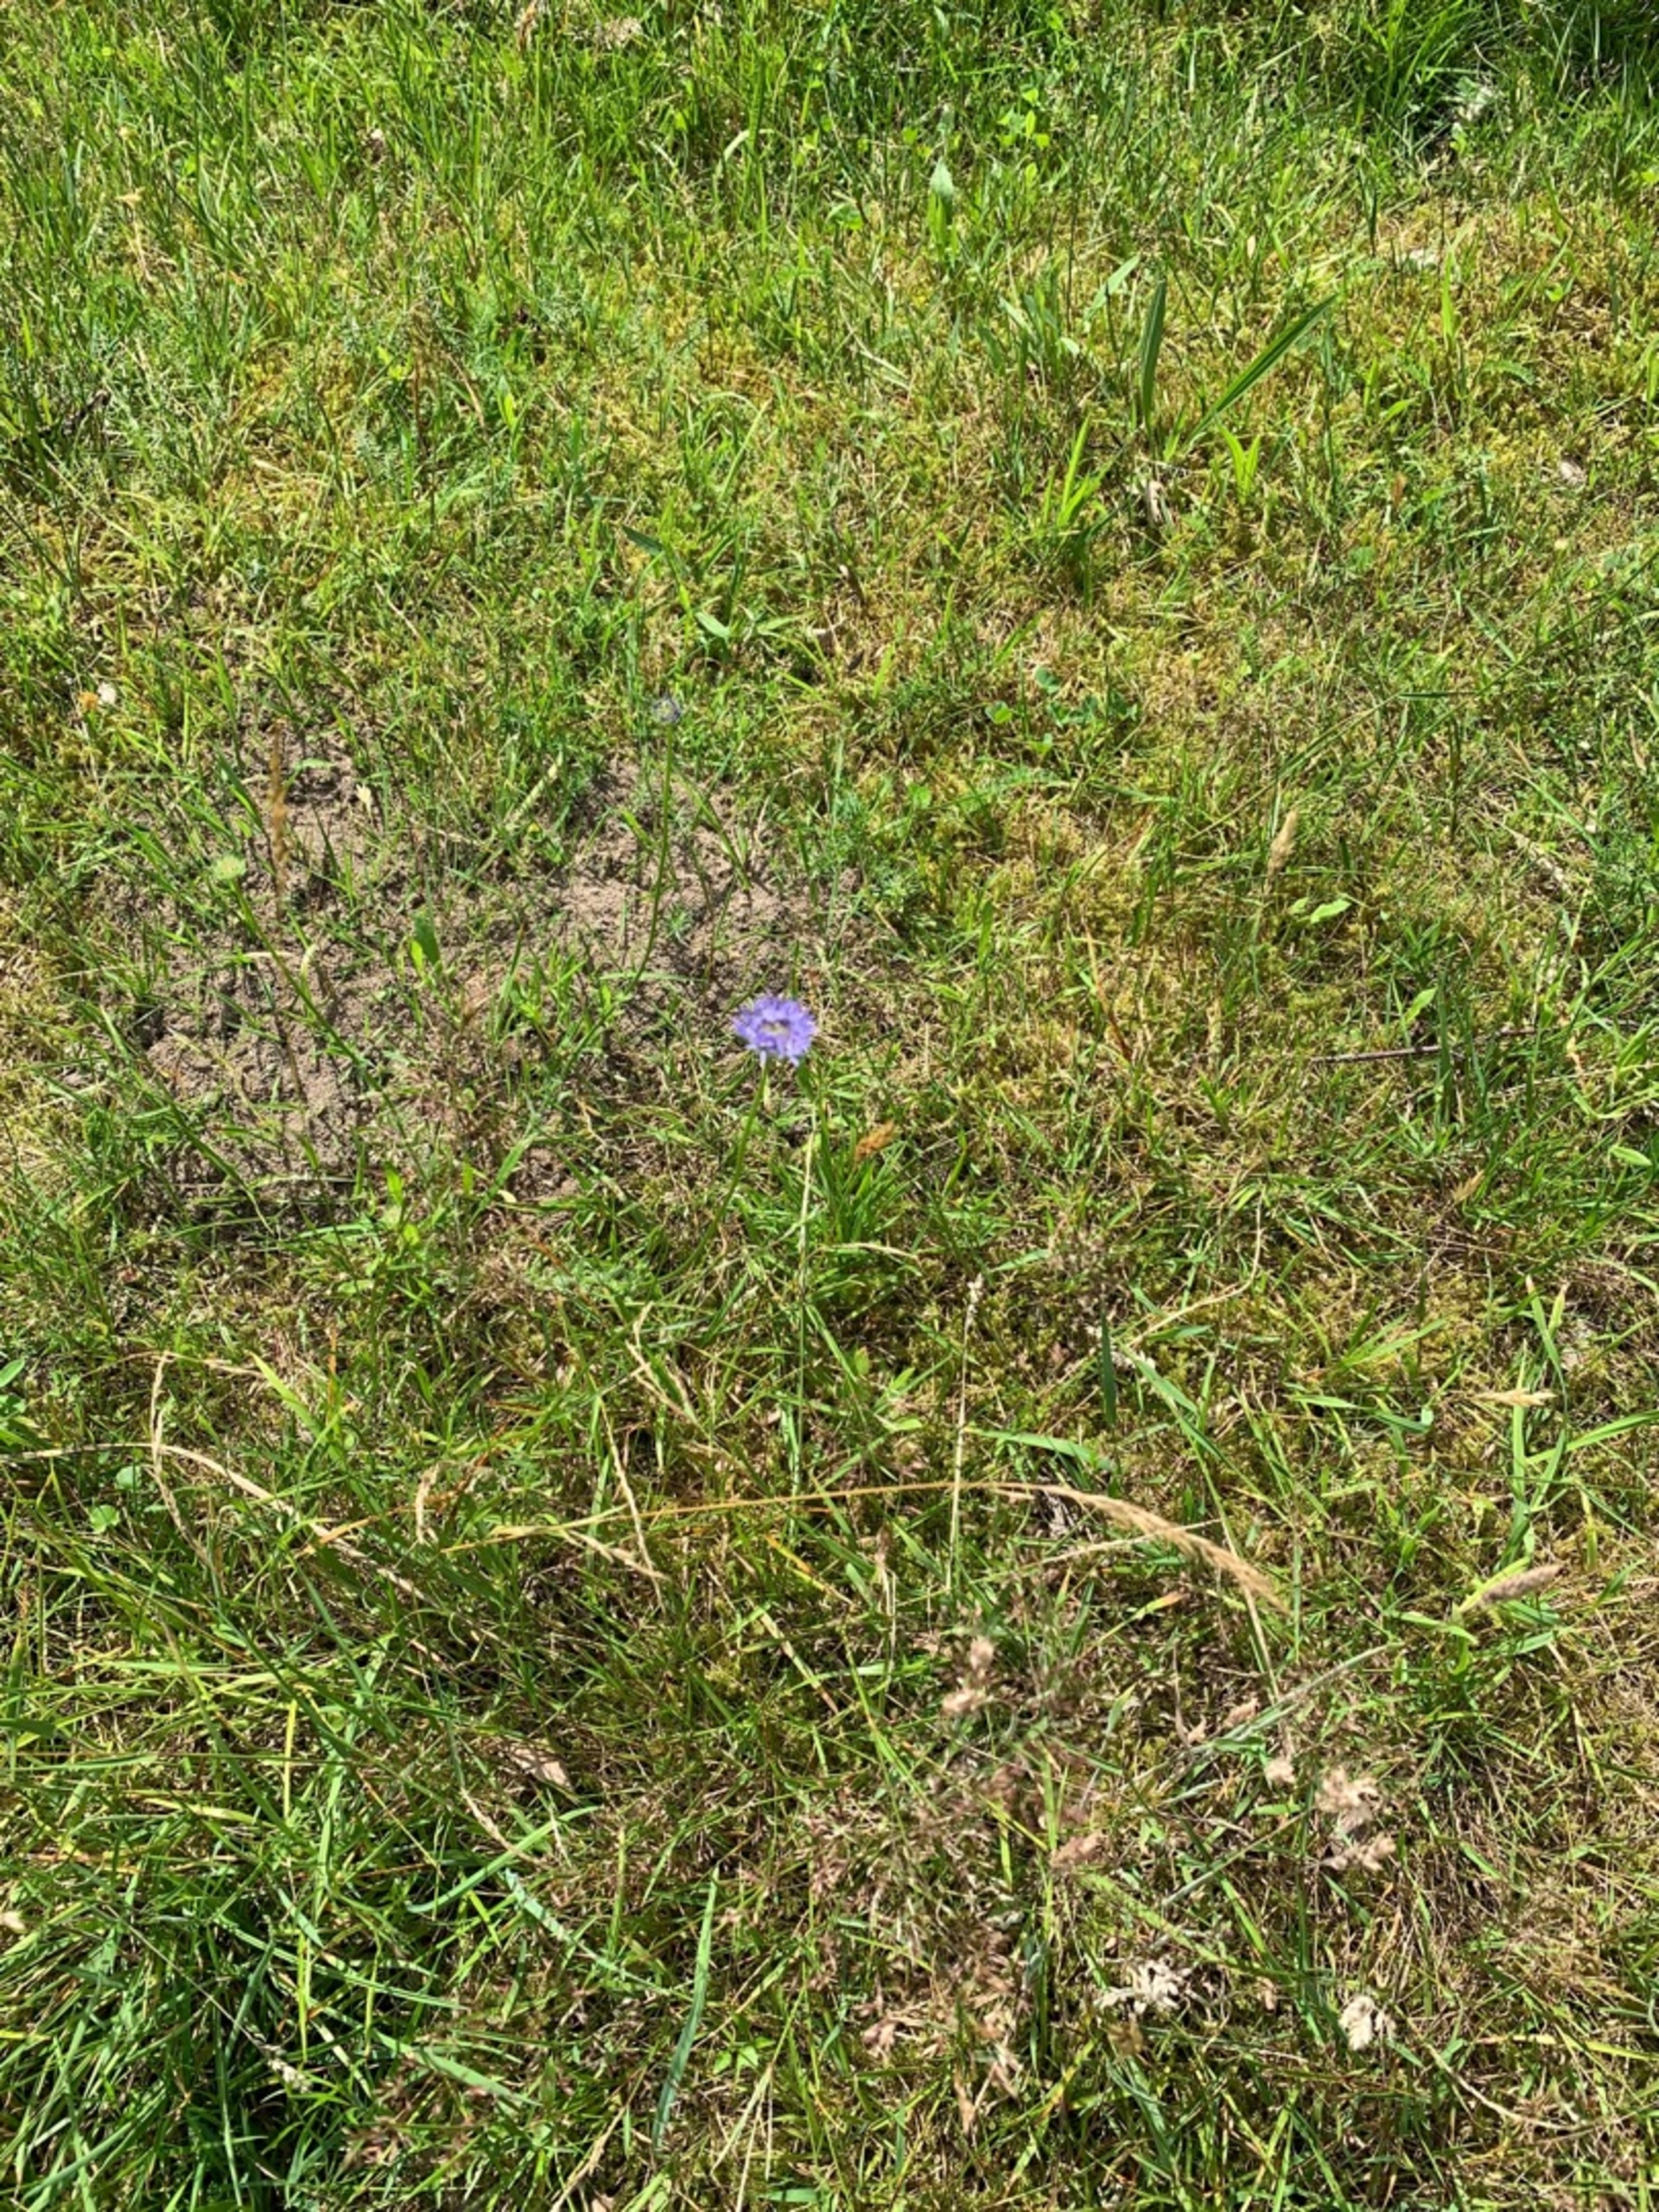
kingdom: Plantae
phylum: Tracheophyta
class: Magnoliopsida
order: Asterales
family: Campanulaceae
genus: Jasione
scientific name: Jasione montana
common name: Blåmunke
